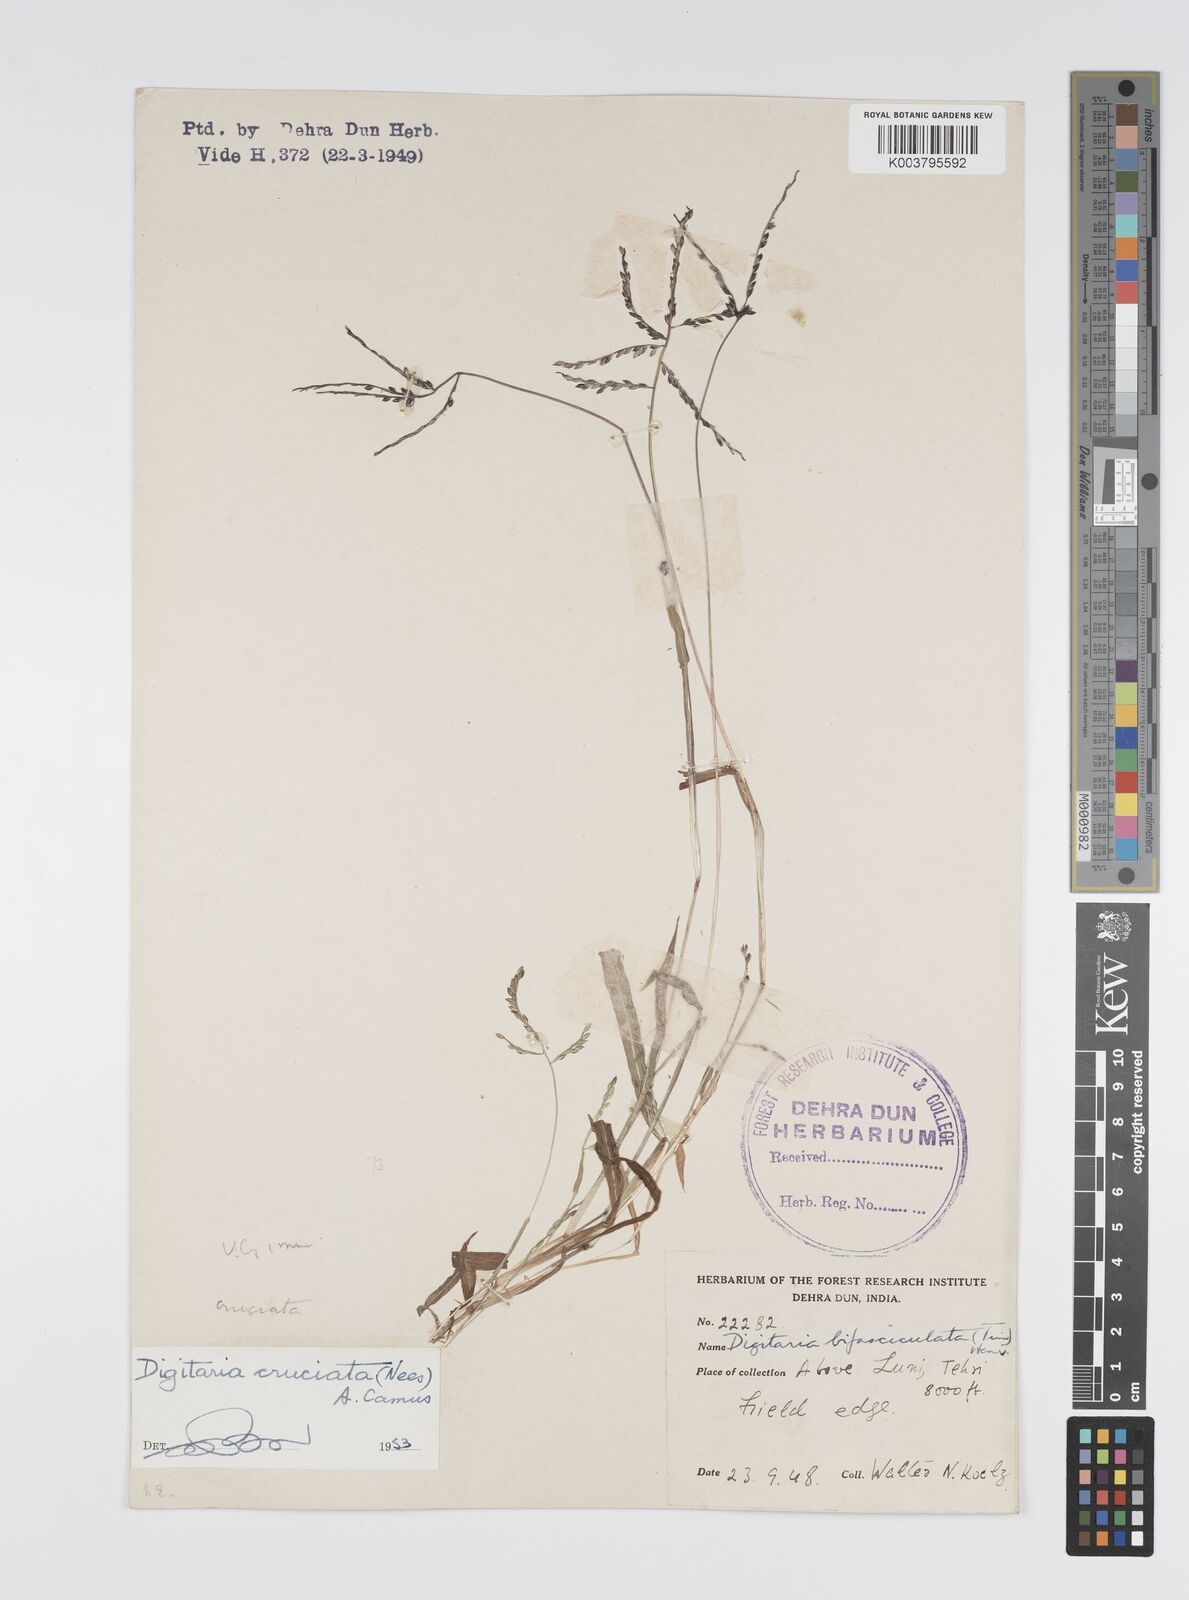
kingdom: Plantae
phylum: Tracheophyta
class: Liliopsida
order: Poales
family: Poaceae
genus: Digitaria
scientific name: Digitaria sanguinalis
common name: Hairy crabgrass
